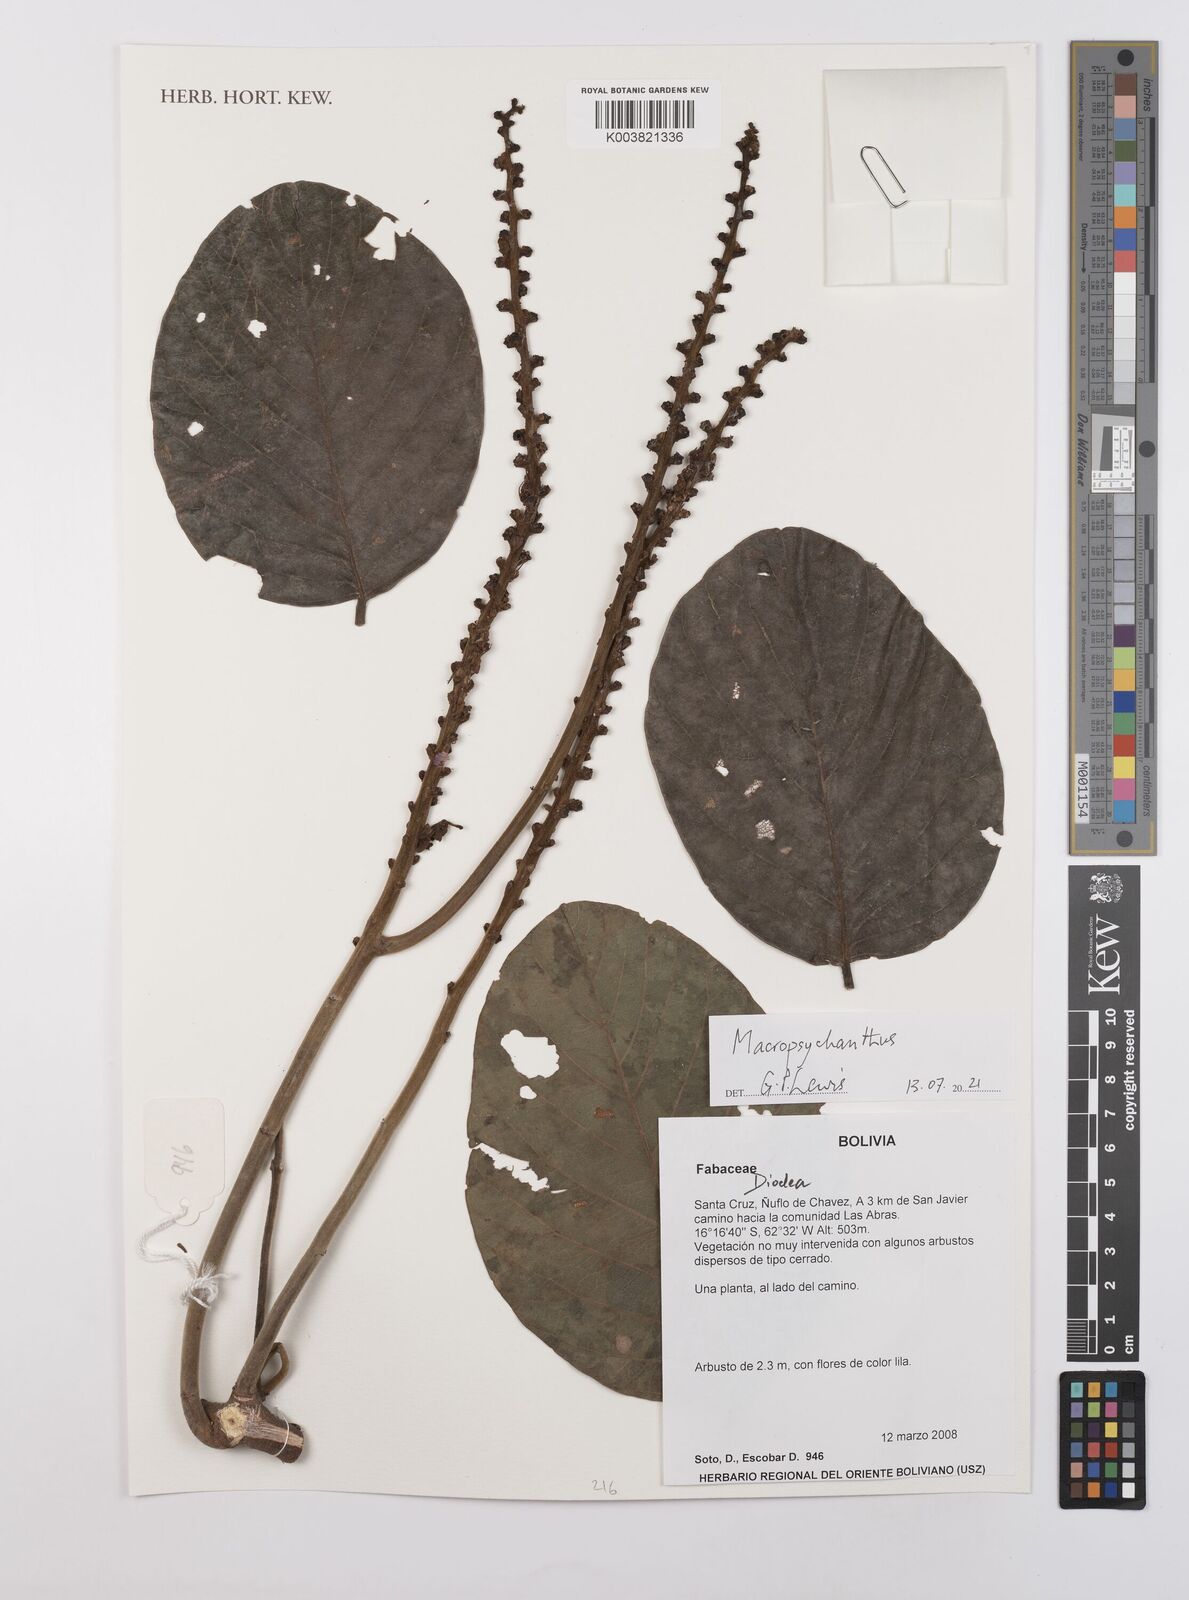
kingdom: Plantae
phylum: Tracheophyta
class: Magnoliopsida
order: Fabales
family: Fabaceae
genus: Macropsychanthus
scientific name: Macropsychanthus
